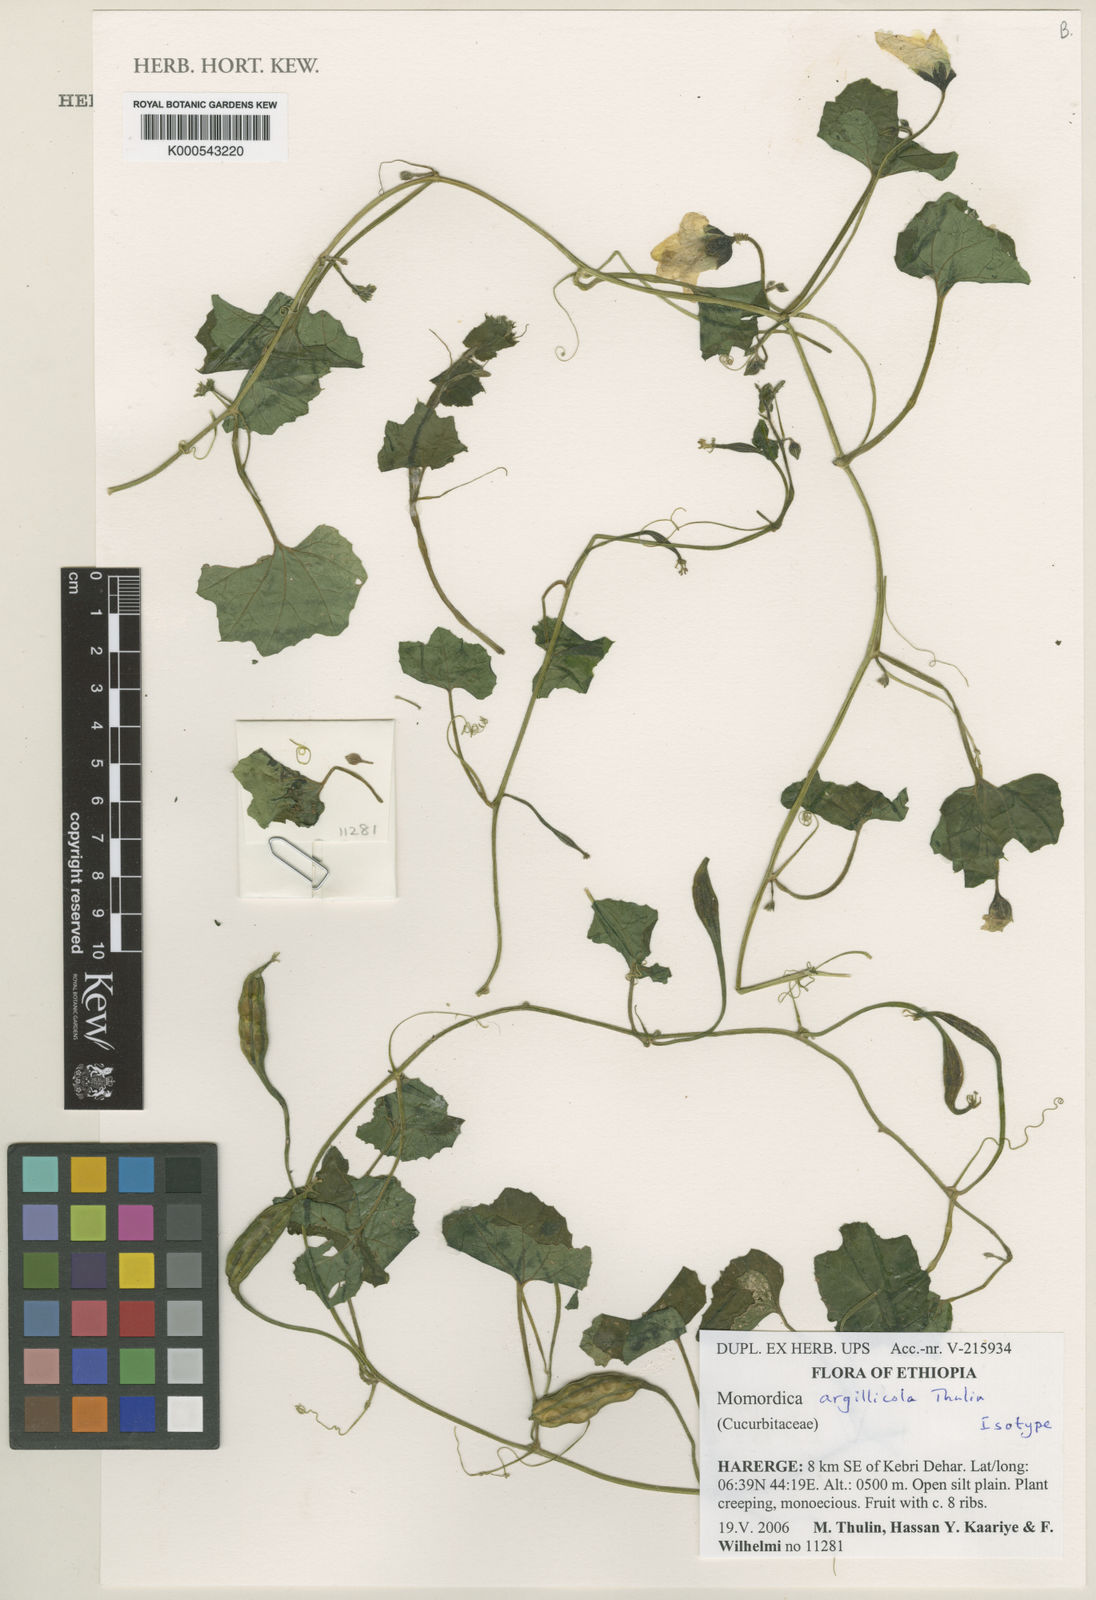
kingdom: Plantae
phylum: Tracheophyta
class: Magnoliopsida
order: Cucurbitales
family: Cucurbitaceae
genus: Momordica
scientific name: Momordica argillicola
